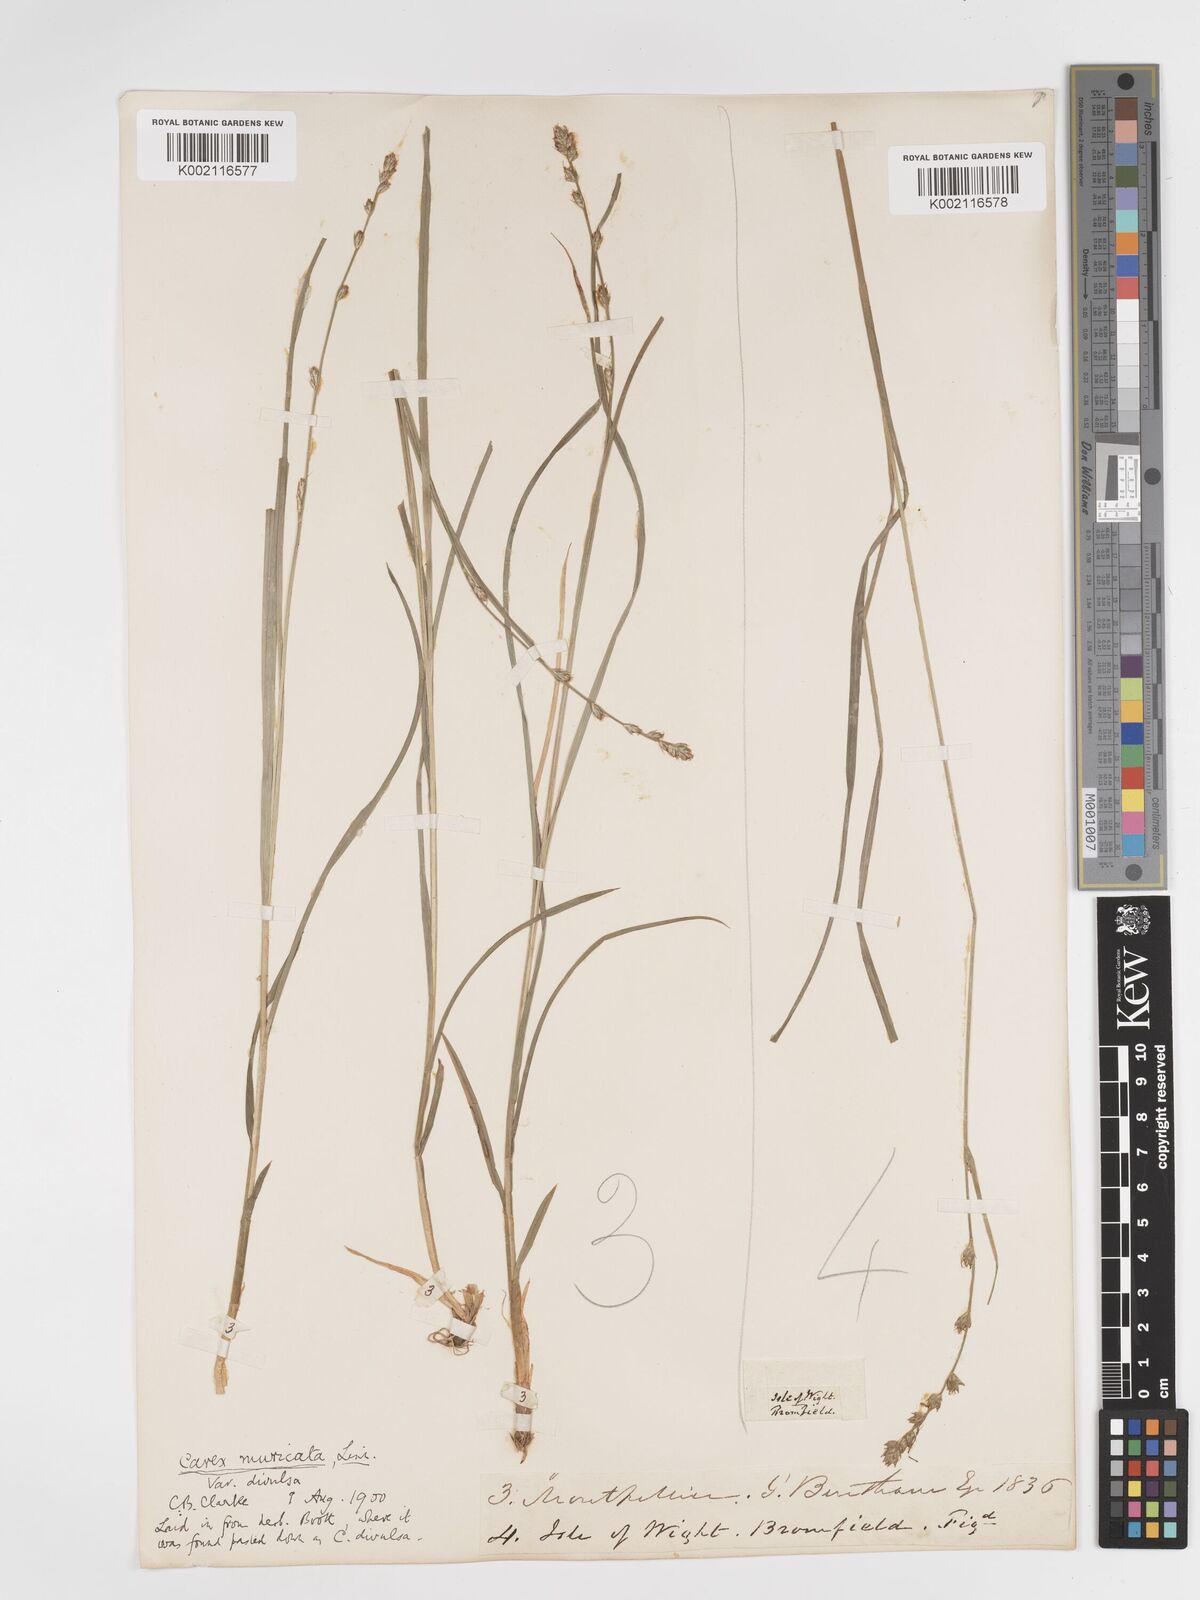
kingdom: Plantae
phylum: Tracheophyta
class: Liliopsida
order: Poales
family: Cyperaceae
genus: Carex
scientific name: Carex divulsa
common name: Grassland sedge
